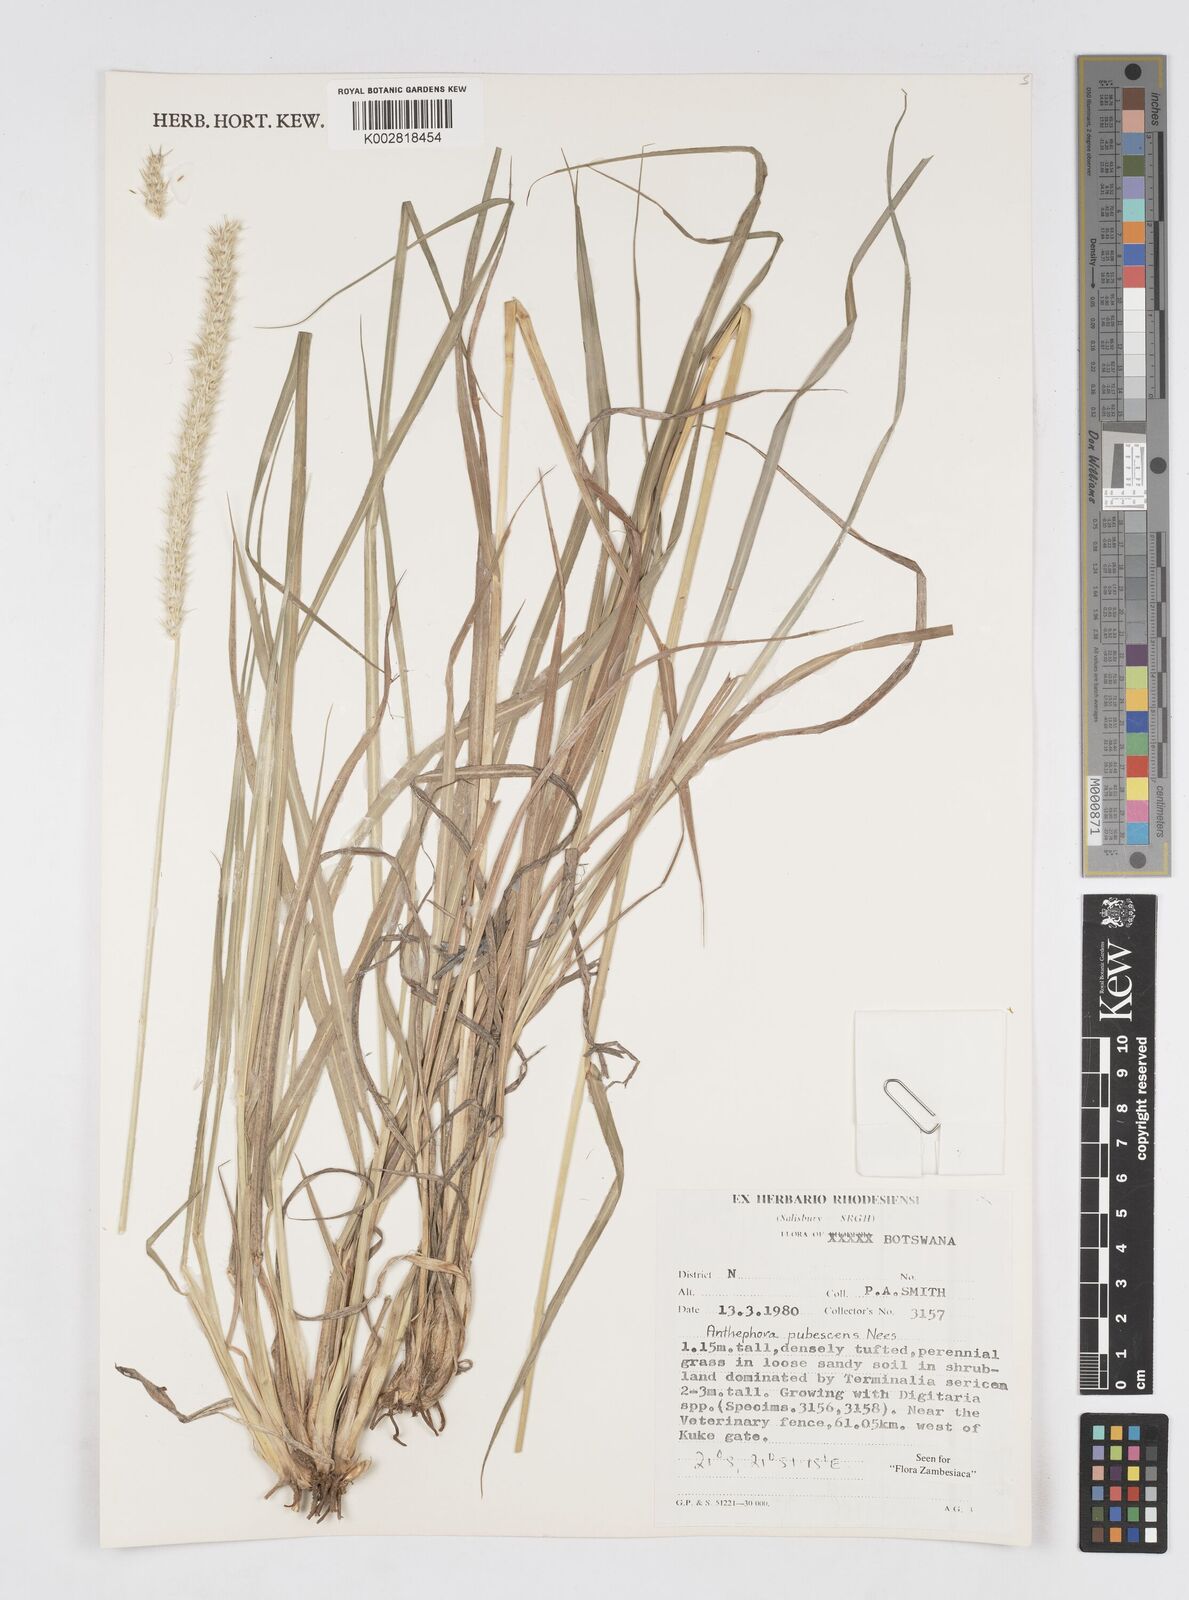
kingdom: Plantae
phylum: Tracheophyta
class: Liliopsida
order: Poales
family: Poaceae
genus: Anthephora
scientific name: Anthephora pubescens
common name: Wool grass
